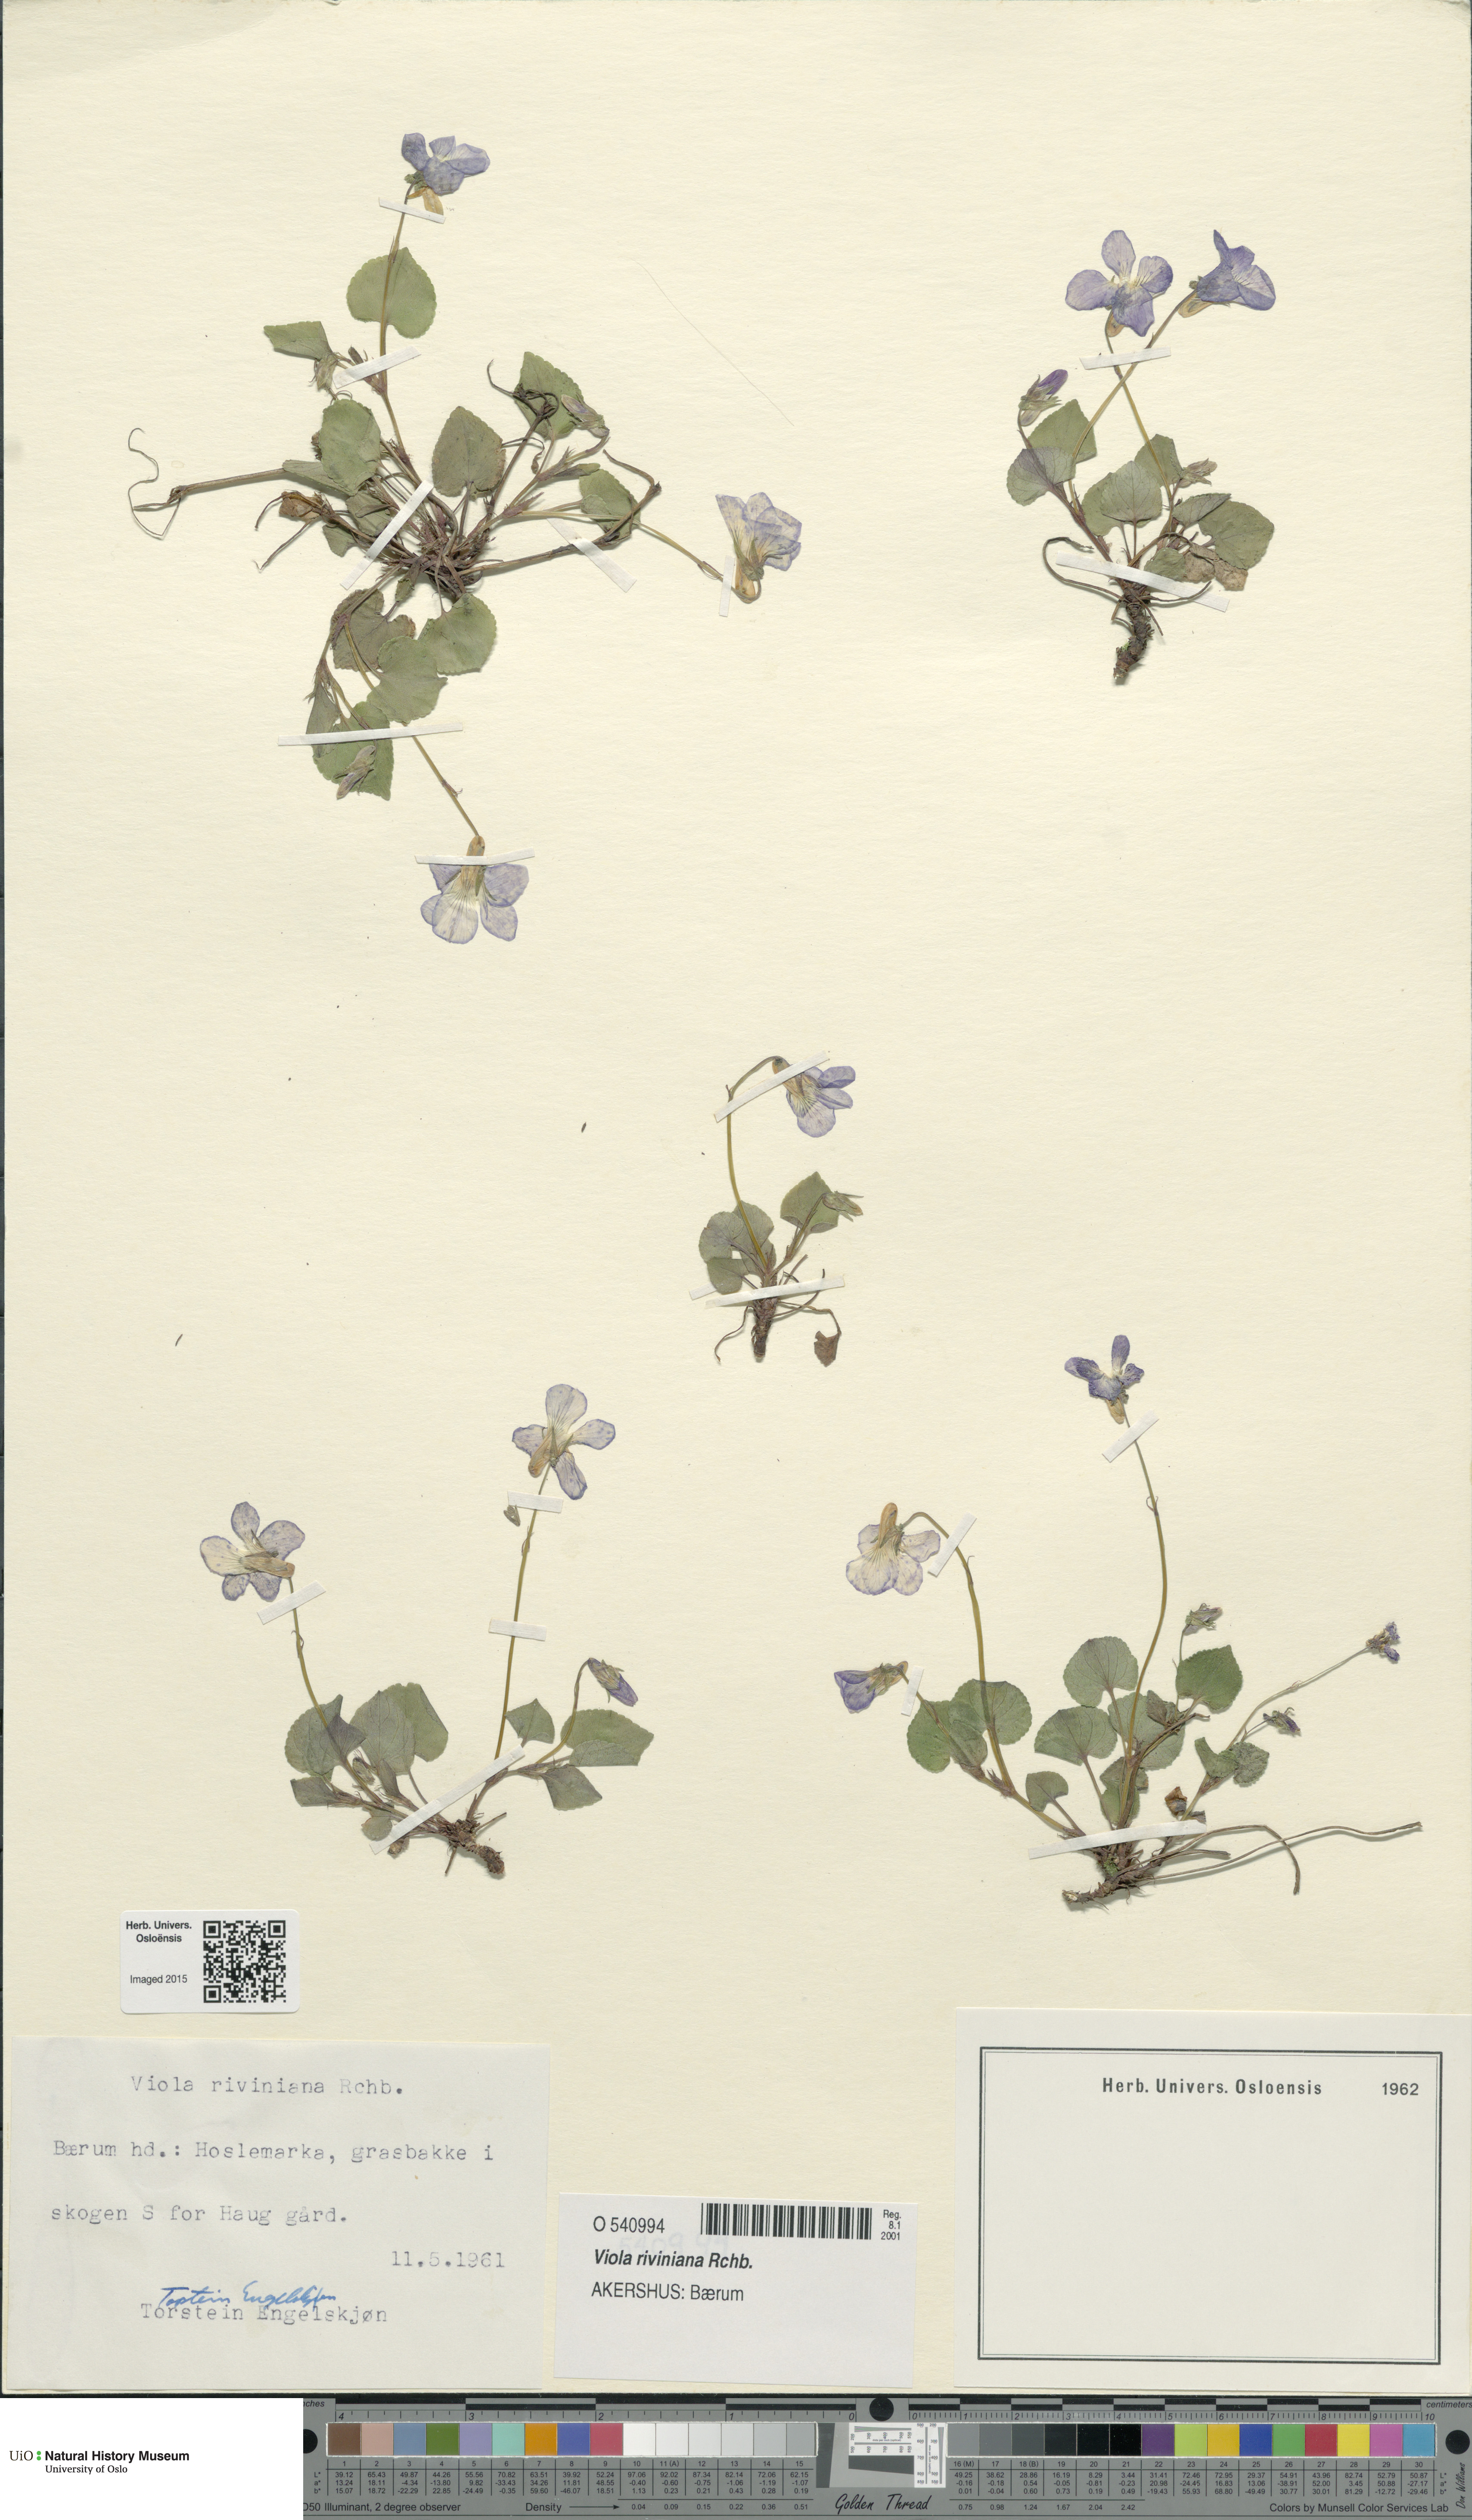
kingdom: Plantae
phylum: Tracheophyta
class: Magnoliopsida
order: Malpighiales
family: Violaceae
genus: Viola
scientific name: Viola riviniana
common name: Common dog-violet
